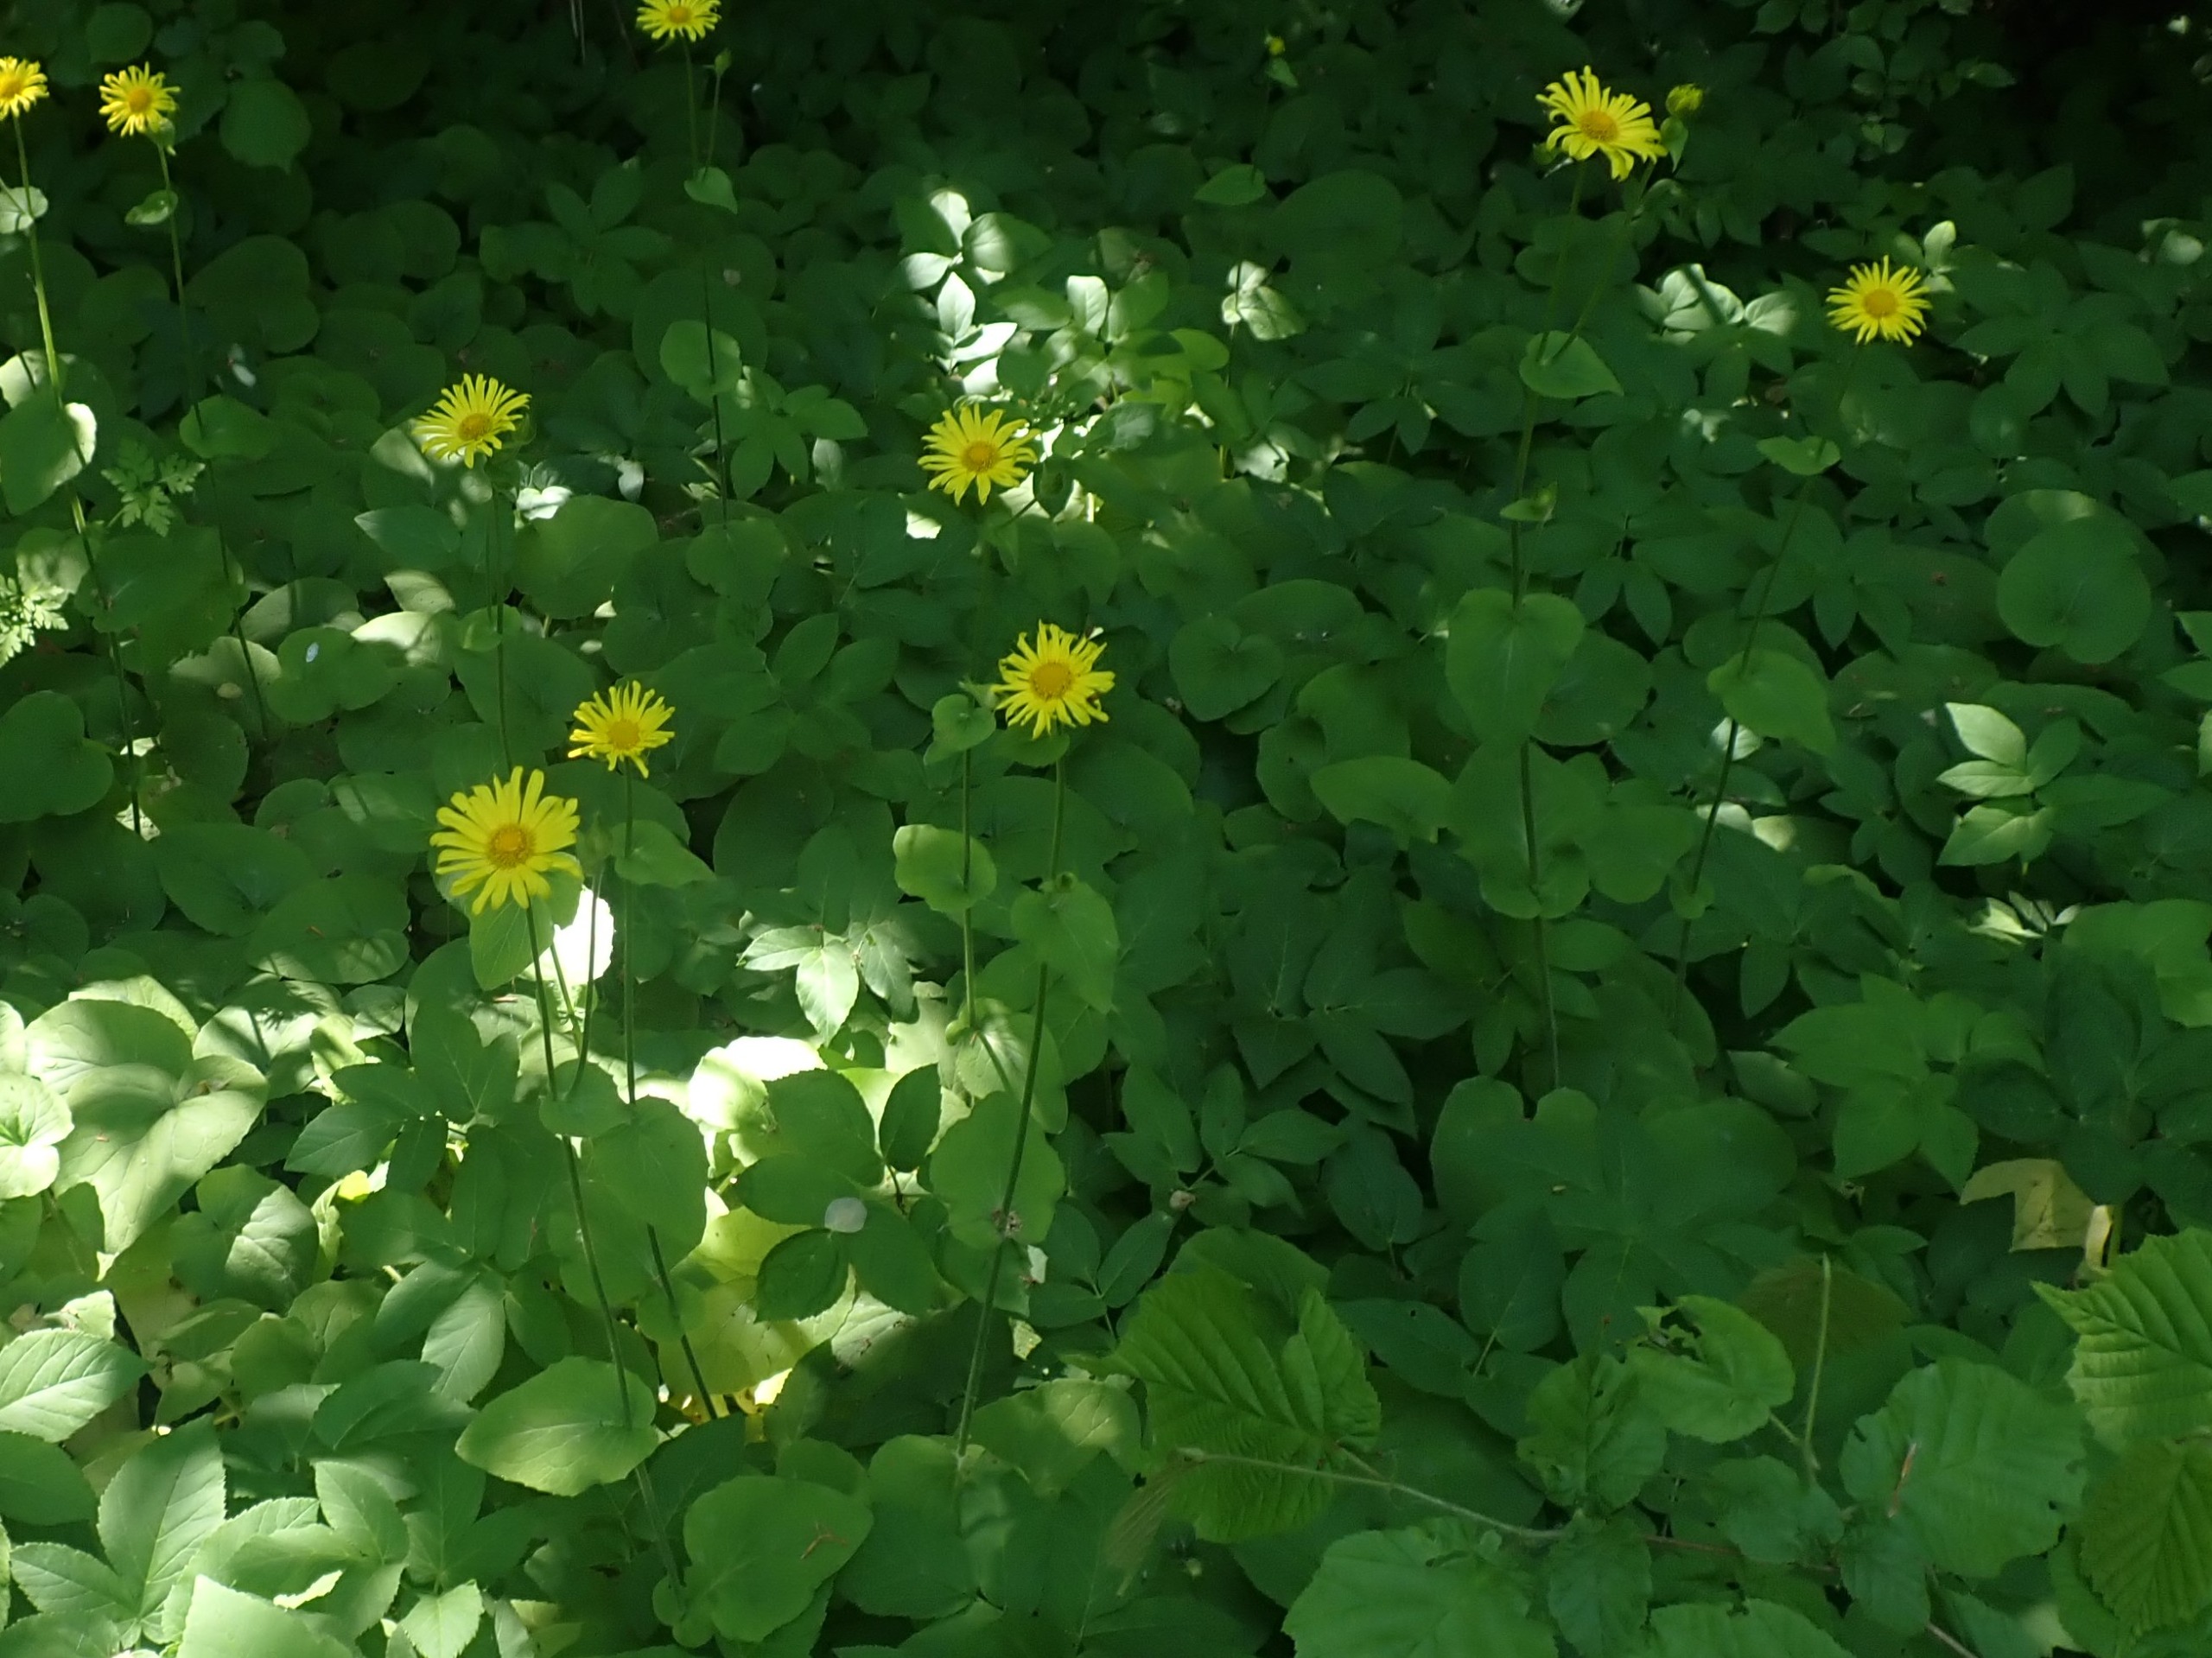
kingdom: Plantae
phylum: Tracheophyta
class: Magnoliopsida
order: Asterales
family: Asteraceae
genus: Doronicum
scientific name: Doronicum pardalianches
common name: Hjertebladet gemserod
